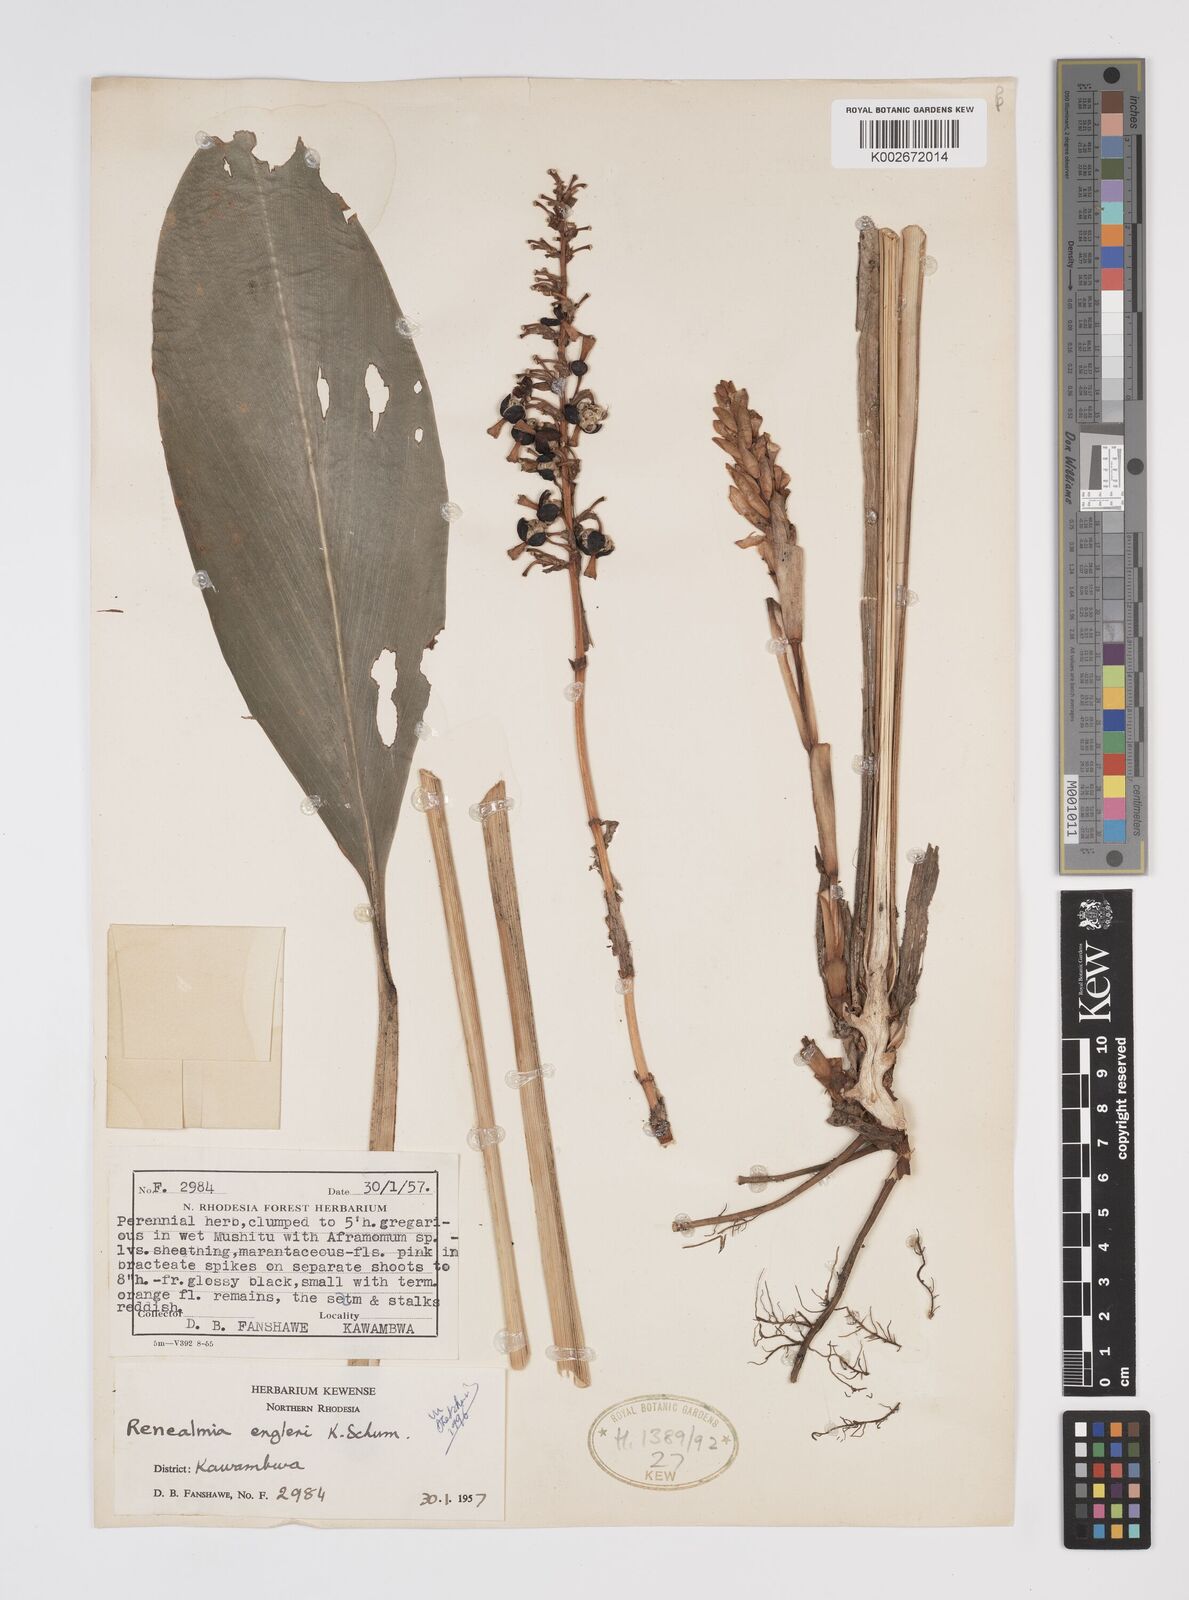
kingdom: Plantae
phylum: Tracheophyta
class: Liliopsida
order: Zingiberales
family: Zingiberaceae
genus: Renealmia
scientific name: Renealmia engleri
